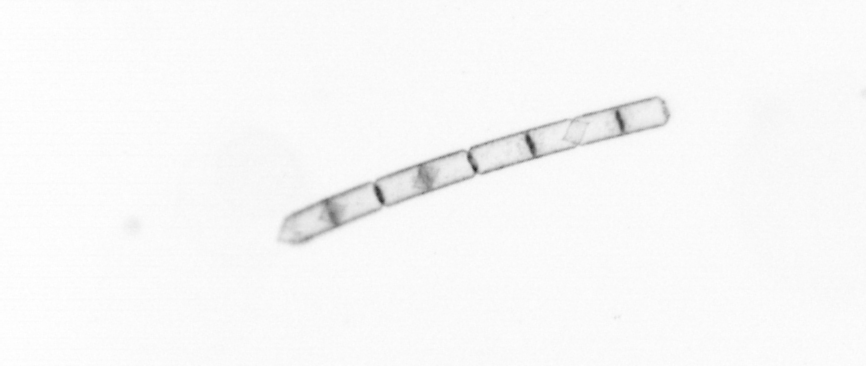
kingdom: Chromista
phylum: Ochrophyta
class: Bacillariophyceae
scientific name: Bacillariophyceae
